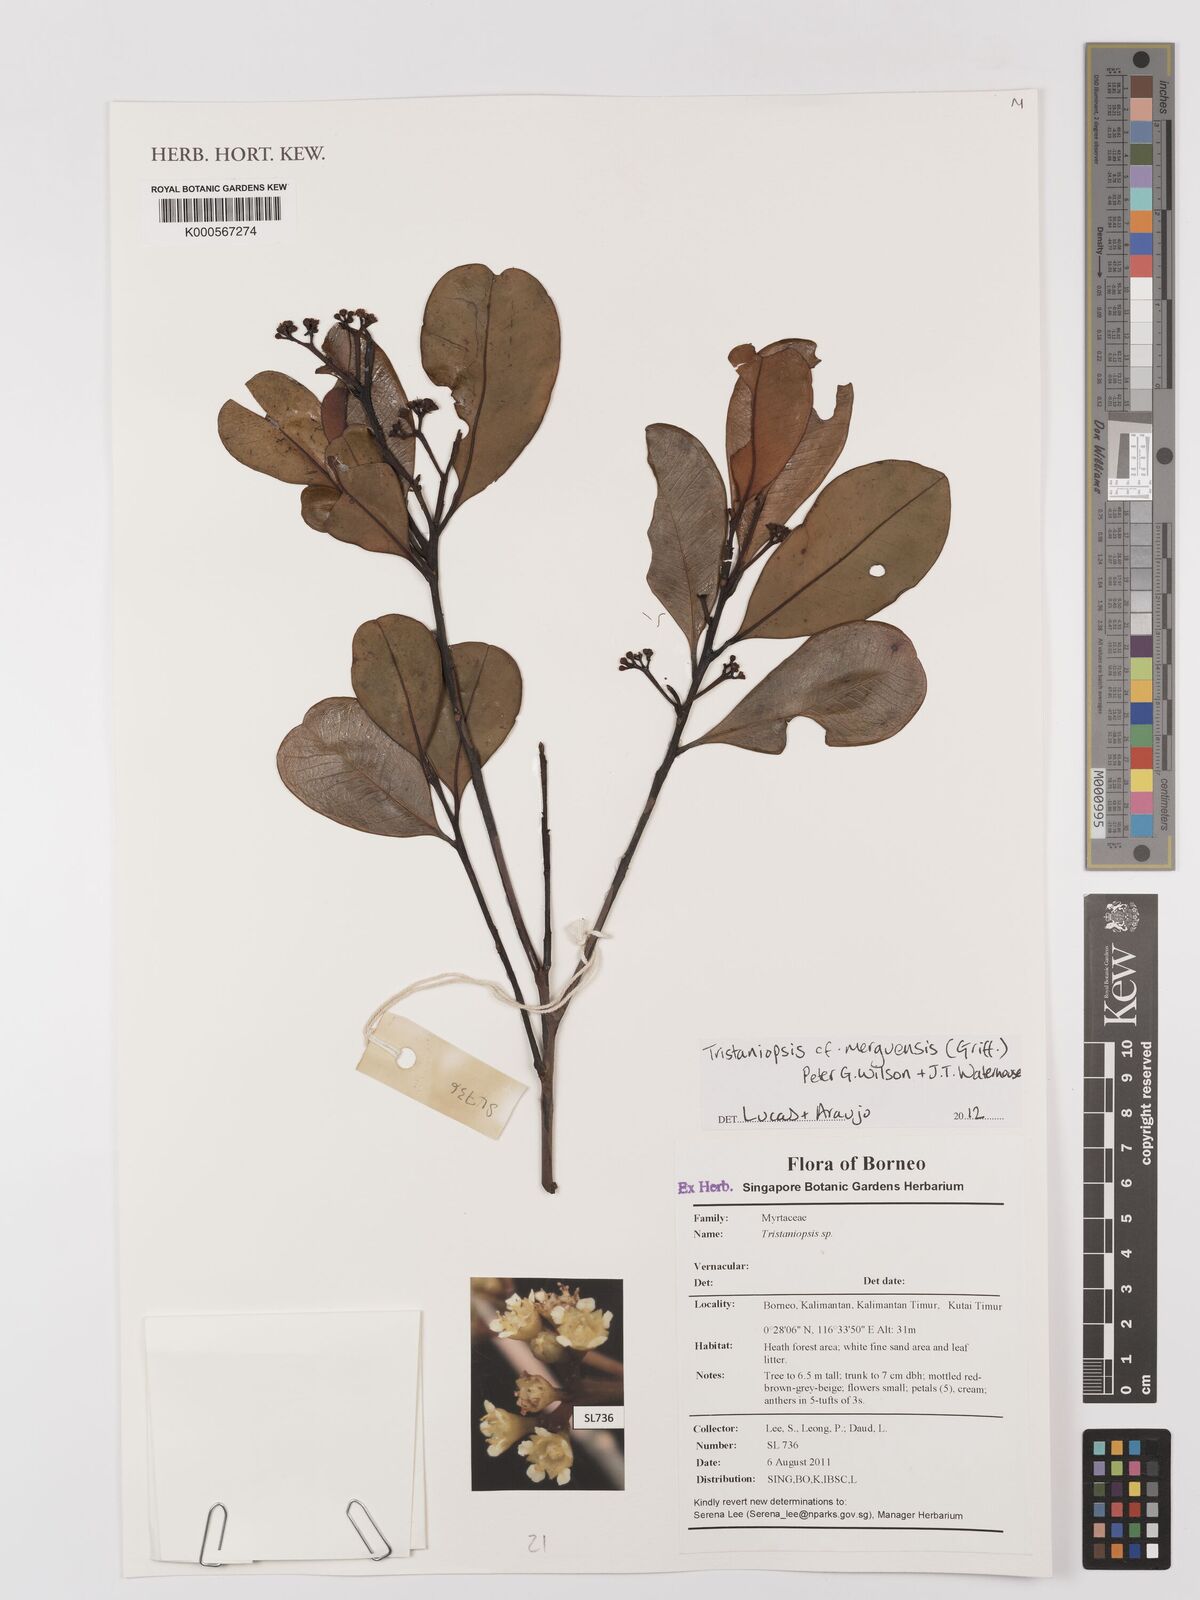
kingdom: Plantae
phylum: Tracheophyta
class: Magnoliopsida
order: Myrtales
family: Myrtaceae
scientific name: Myrtaceae
